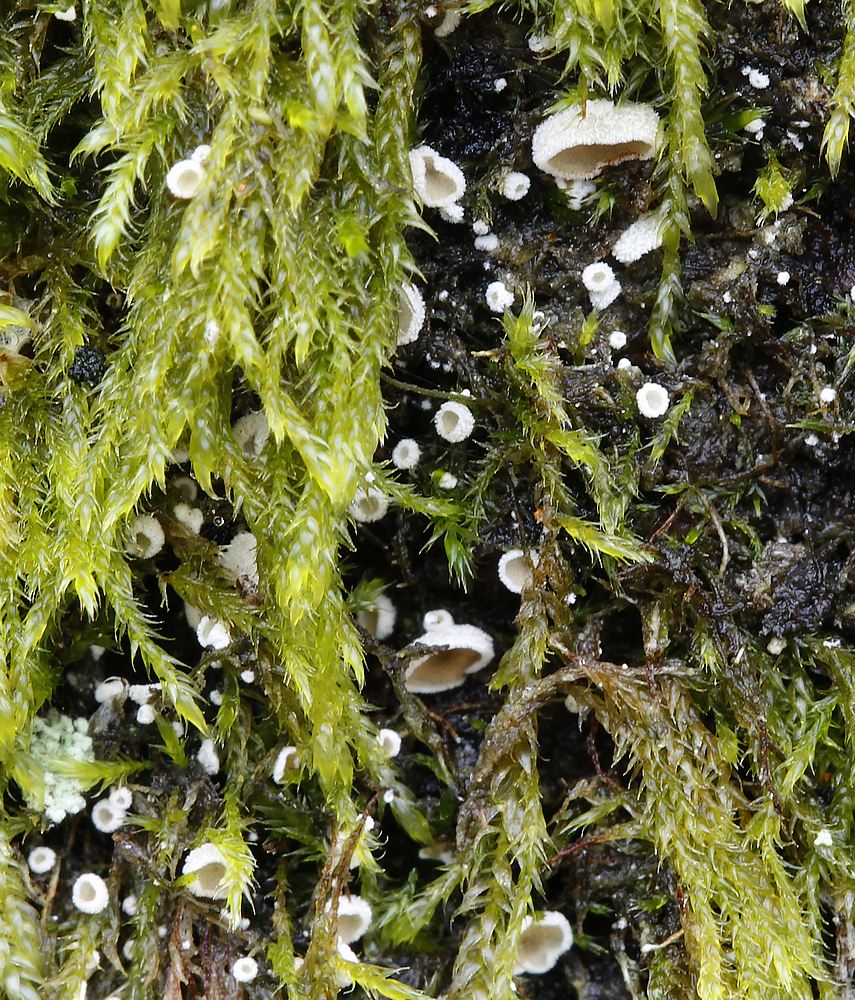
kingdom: Fungi
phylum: Basidiomycota
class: Agaricomycetes
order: Agaricales
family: Chromocyphellaceae
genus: Chromocyphella
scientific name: Chromocyphella muscicola
